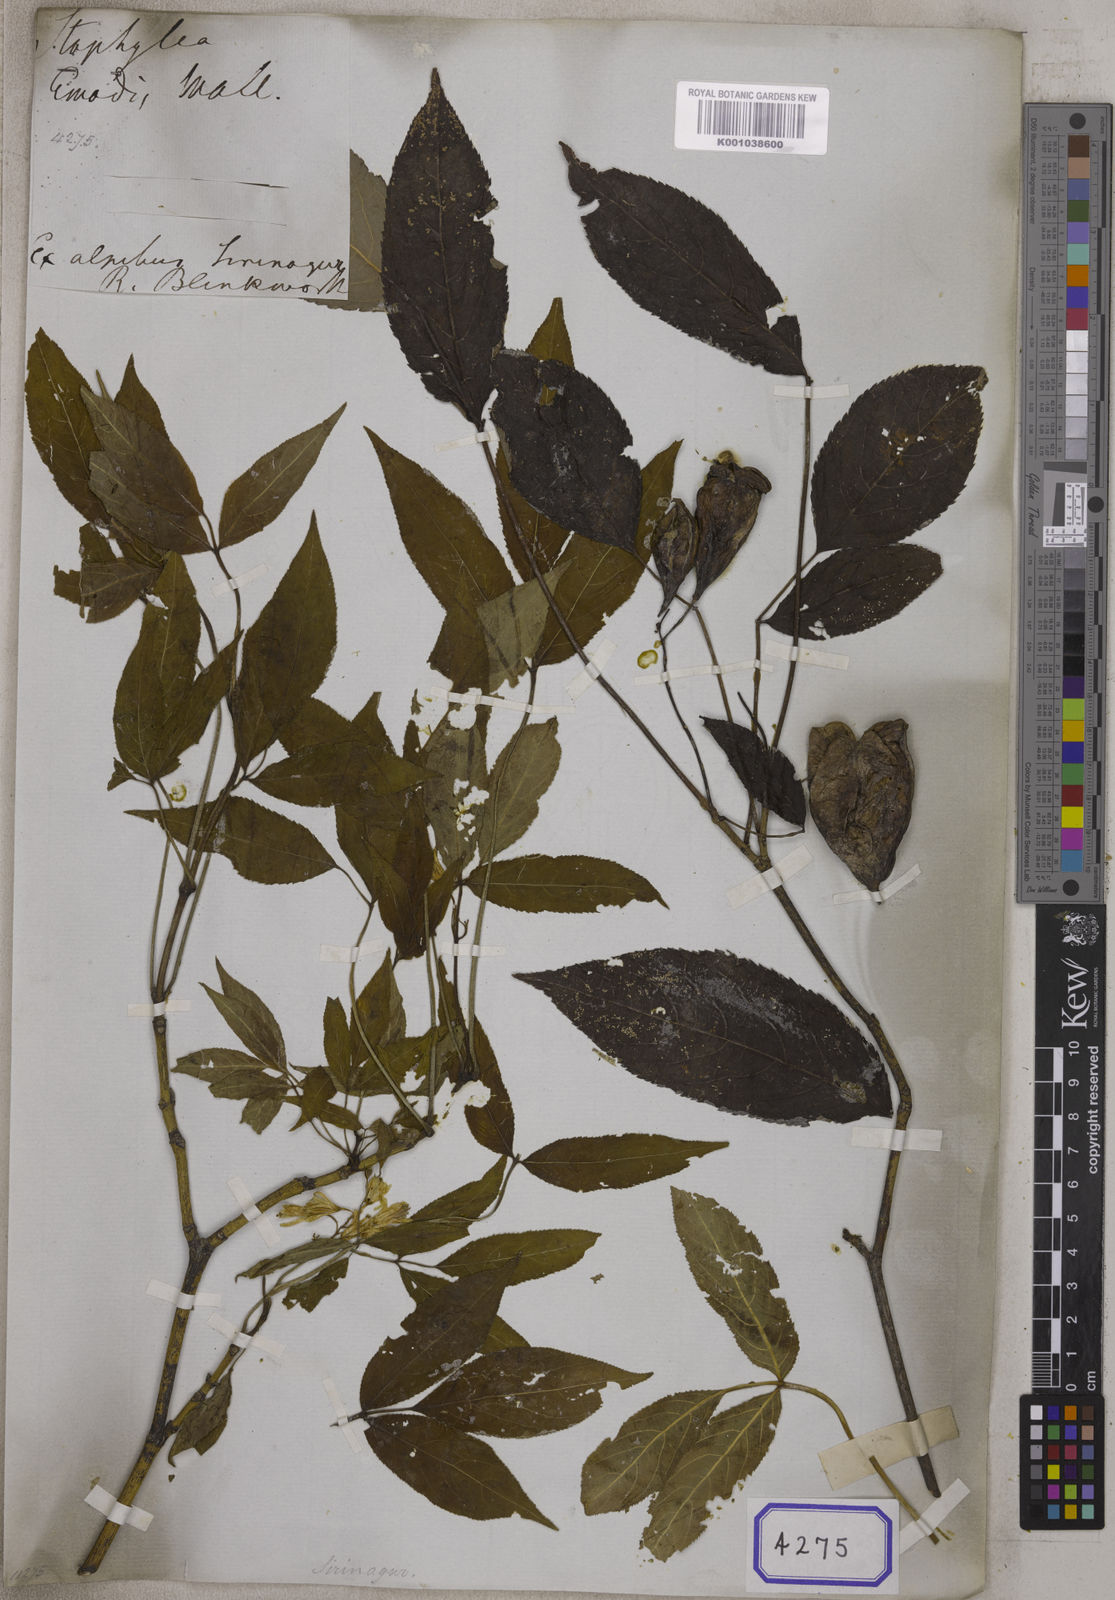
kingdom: Plantae
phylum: Tracheophyta
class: Magnoliopsida
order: Crossosomatales
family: Staphyleaceae
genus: Staphylea
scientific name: Staphylea
